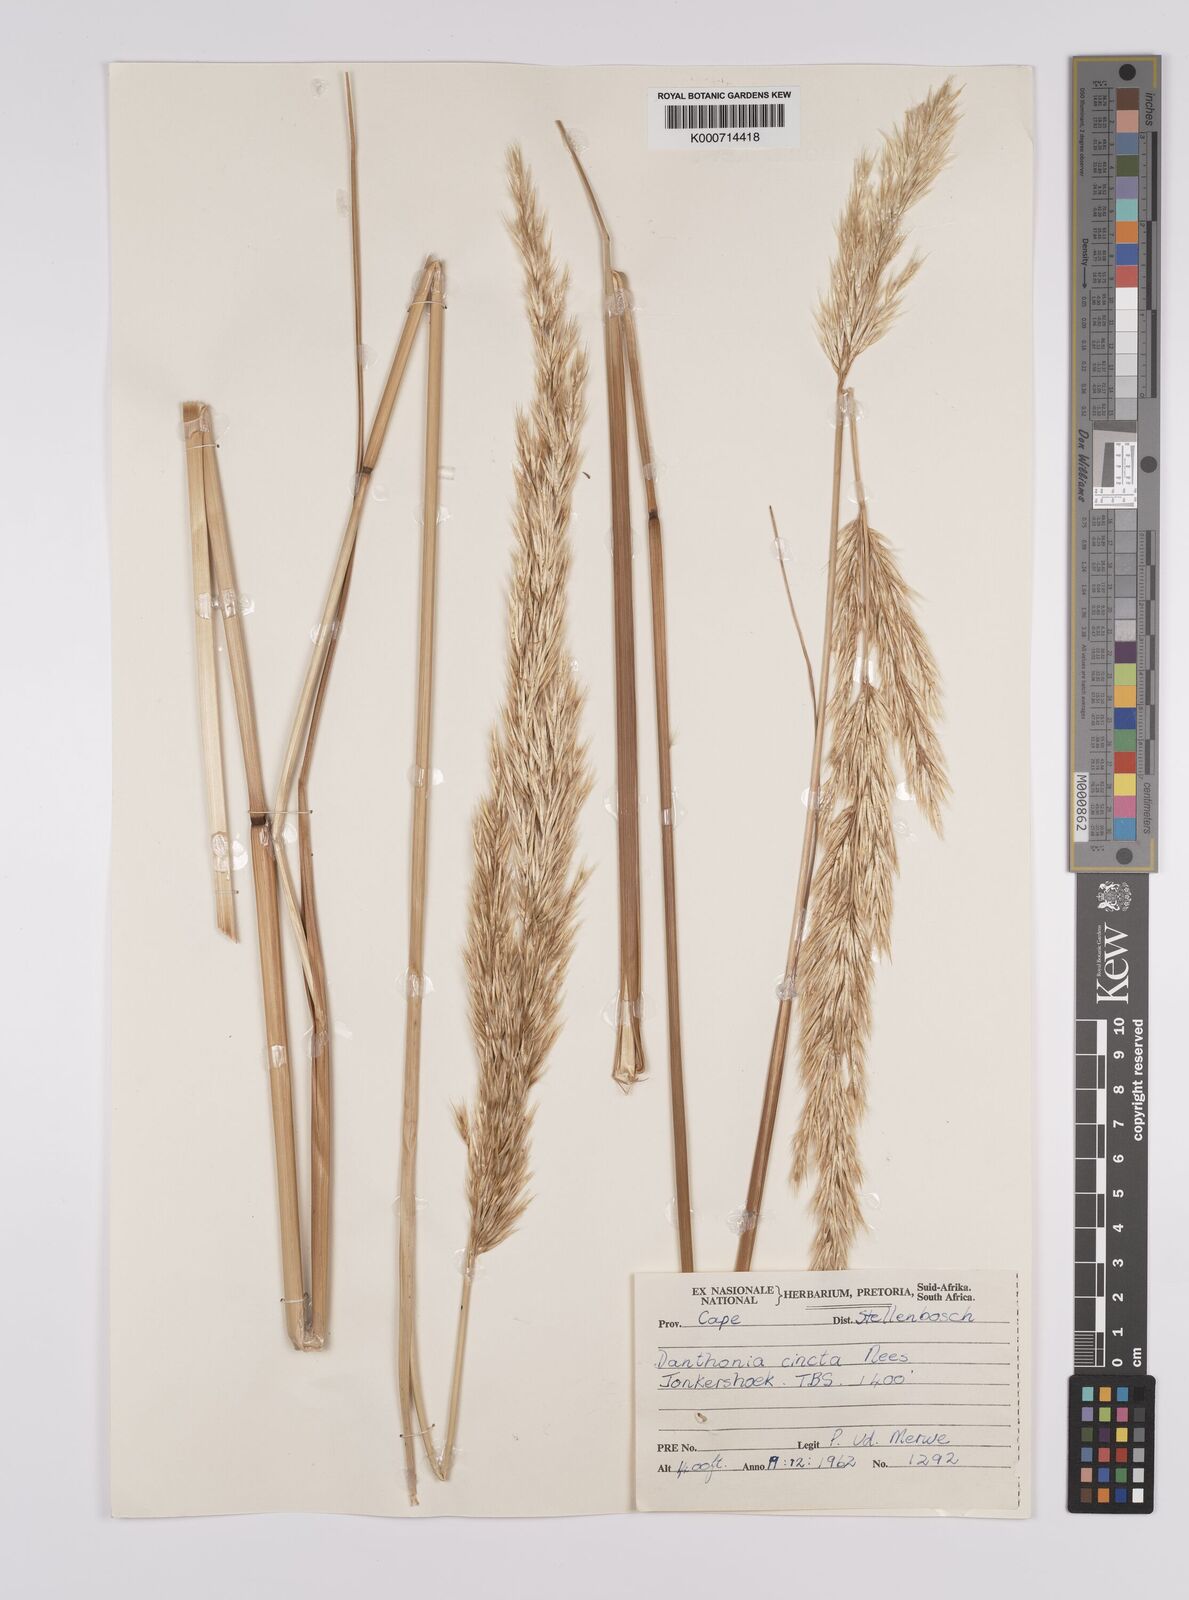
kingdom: Plantae
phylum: Tracheophyta
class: Liliopsida
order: Poales
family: Poaceae
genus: Rytidosperma
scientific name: Rytidosperma
